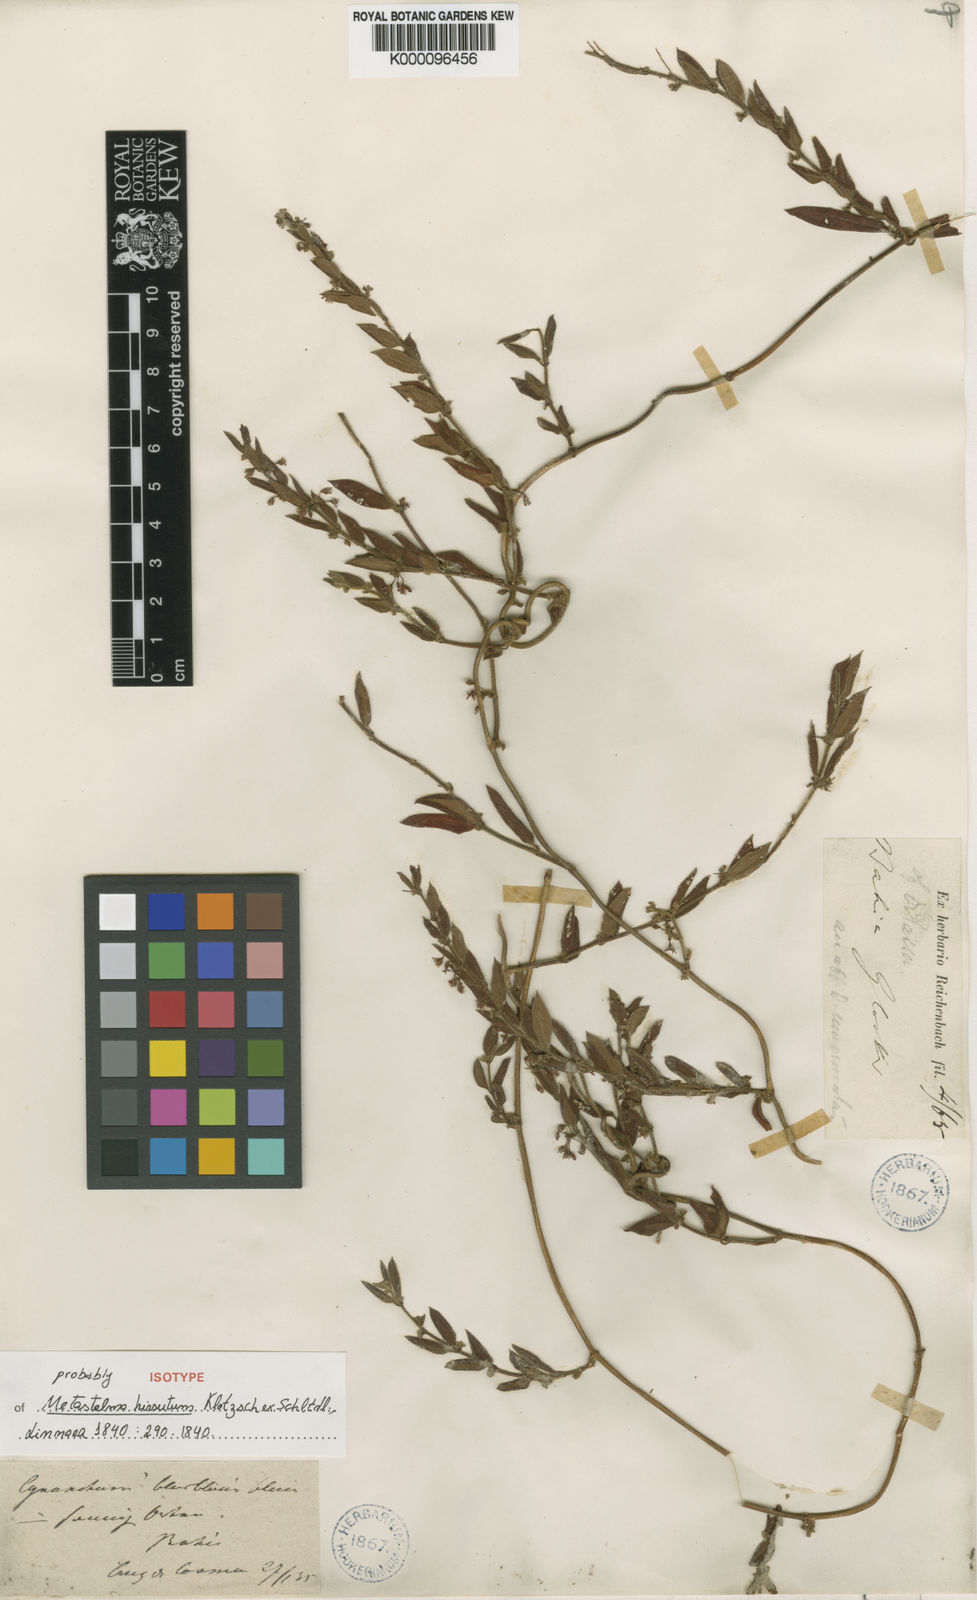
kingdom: Plantae
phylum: Tracheophyta
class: Magnoliopsida
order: Gentianales
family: Apocynaceae
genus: Ditassa
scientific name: Ditassa hispida
